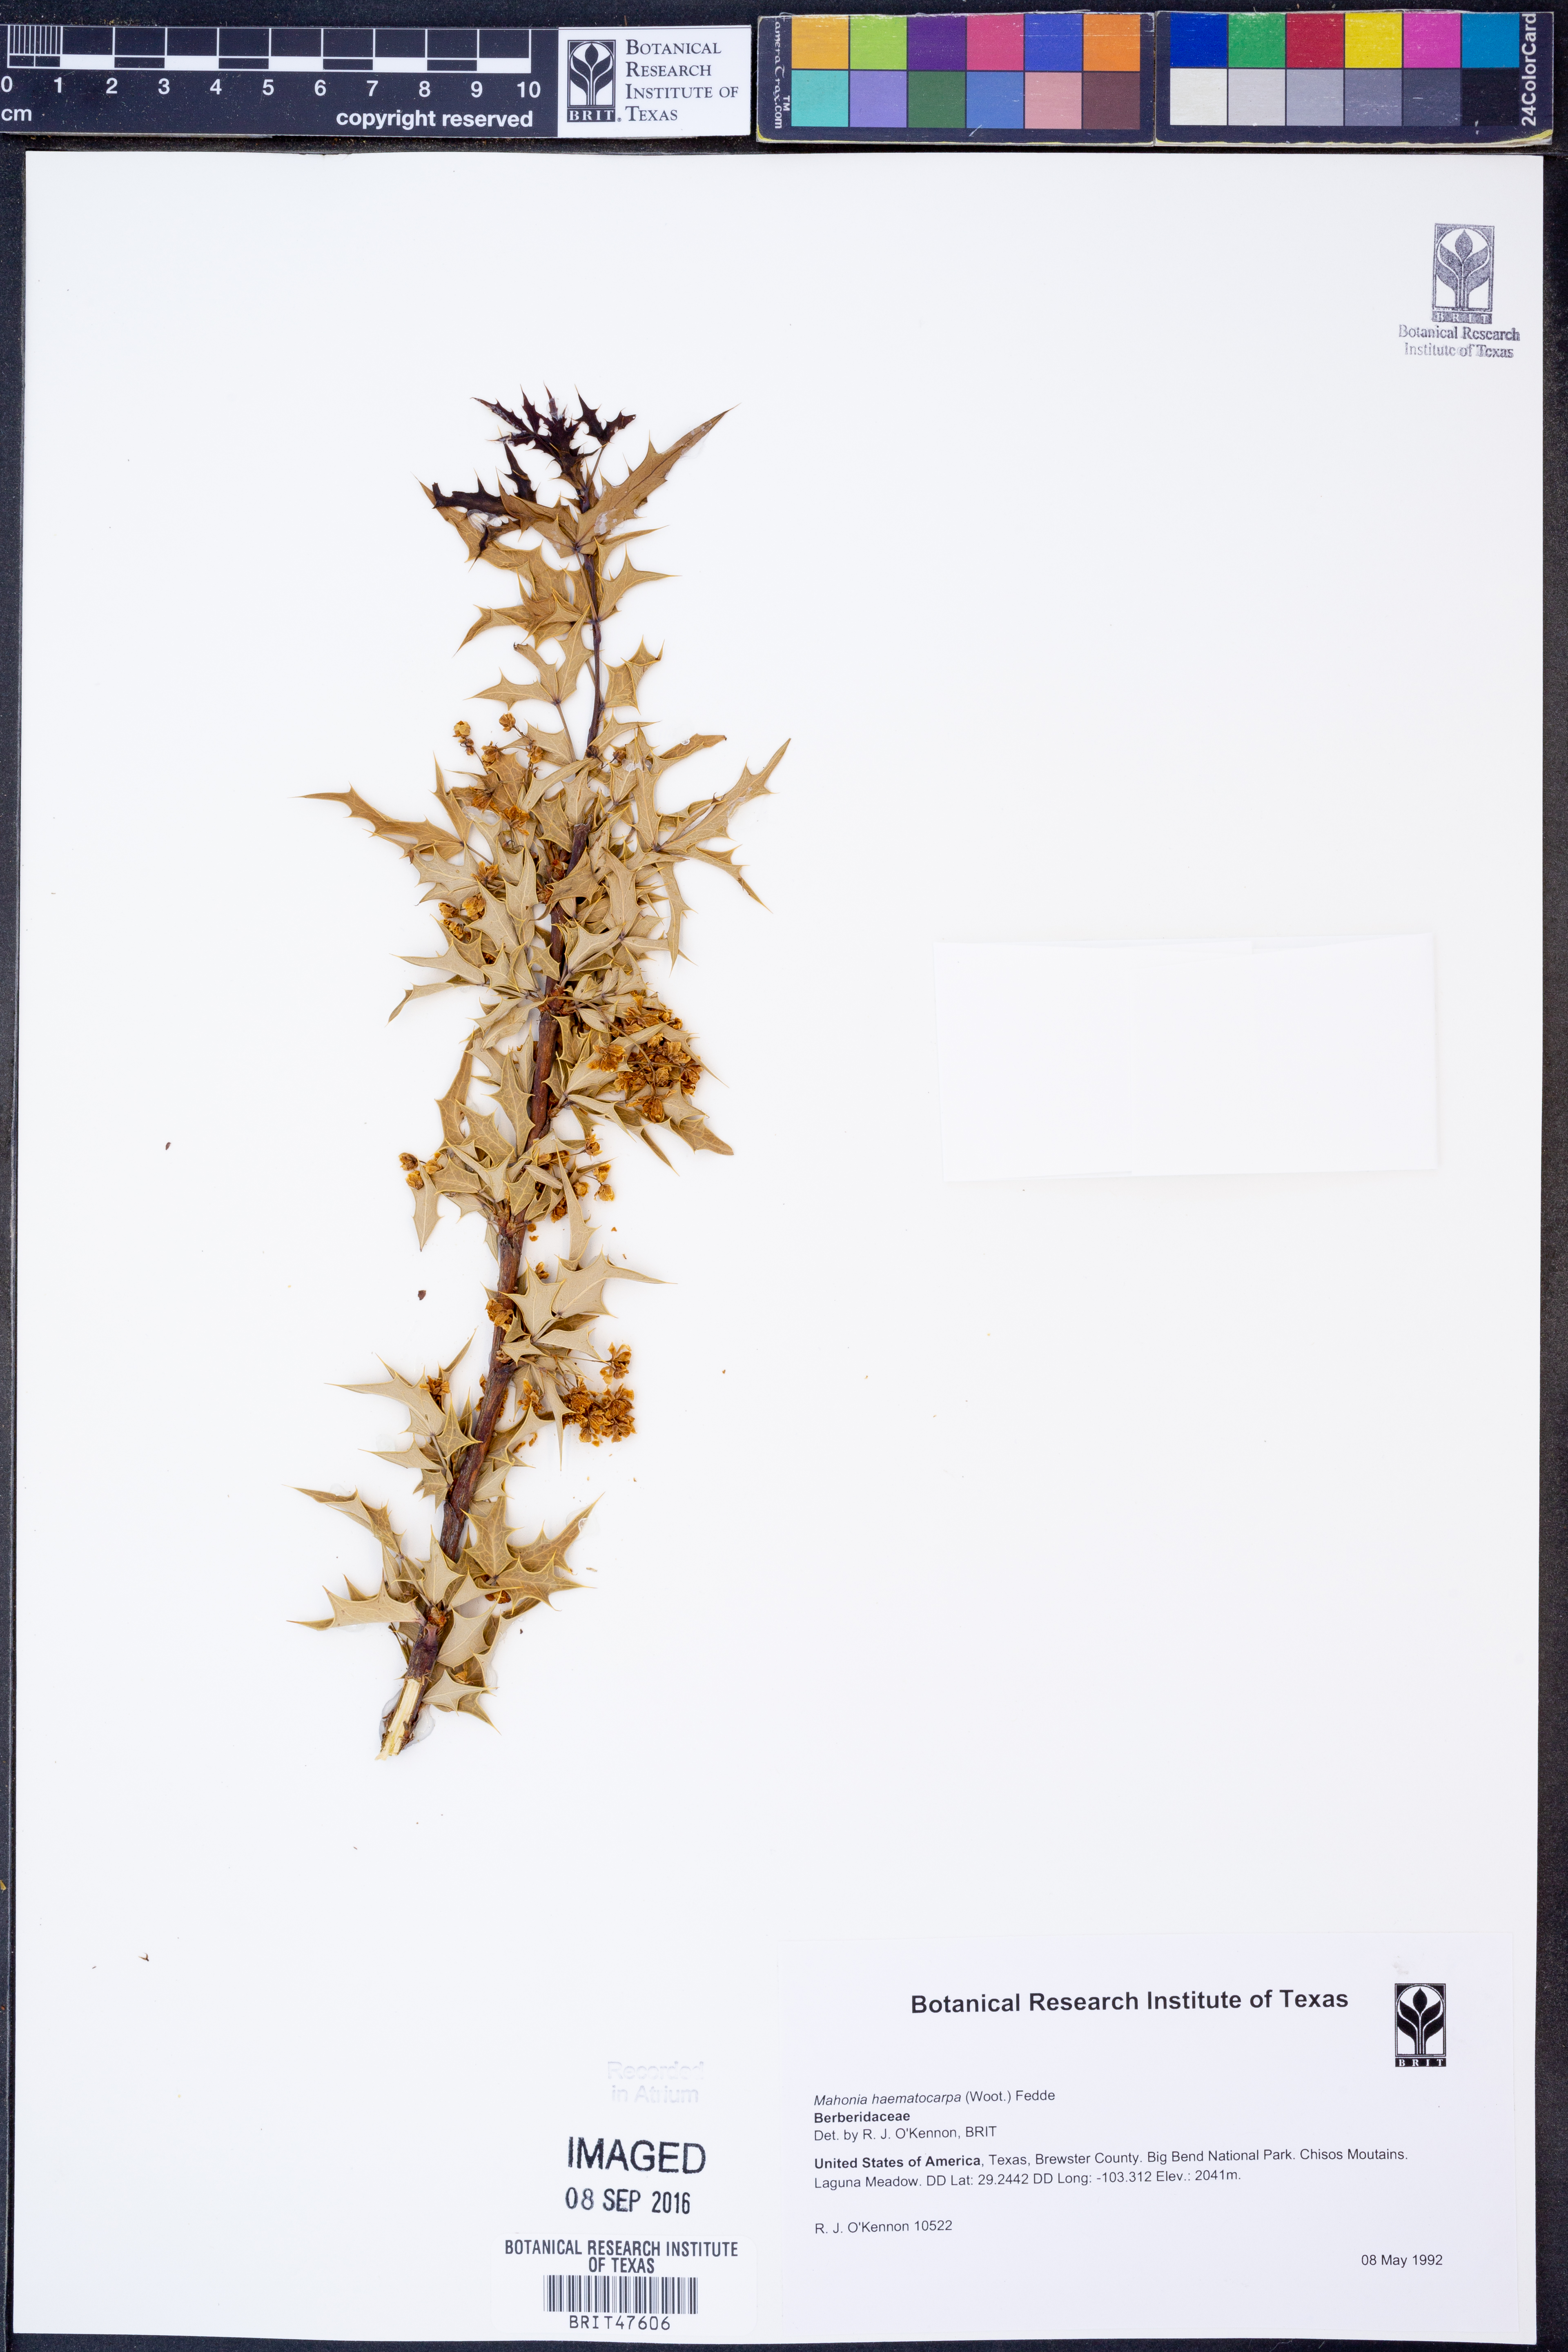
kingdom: Plantae
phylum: Tracheophyta
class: Magnoliopsida
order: Ranunculales
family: Berberidaceae
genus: Alloberberis
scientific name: Alloberberis haematocarpa
